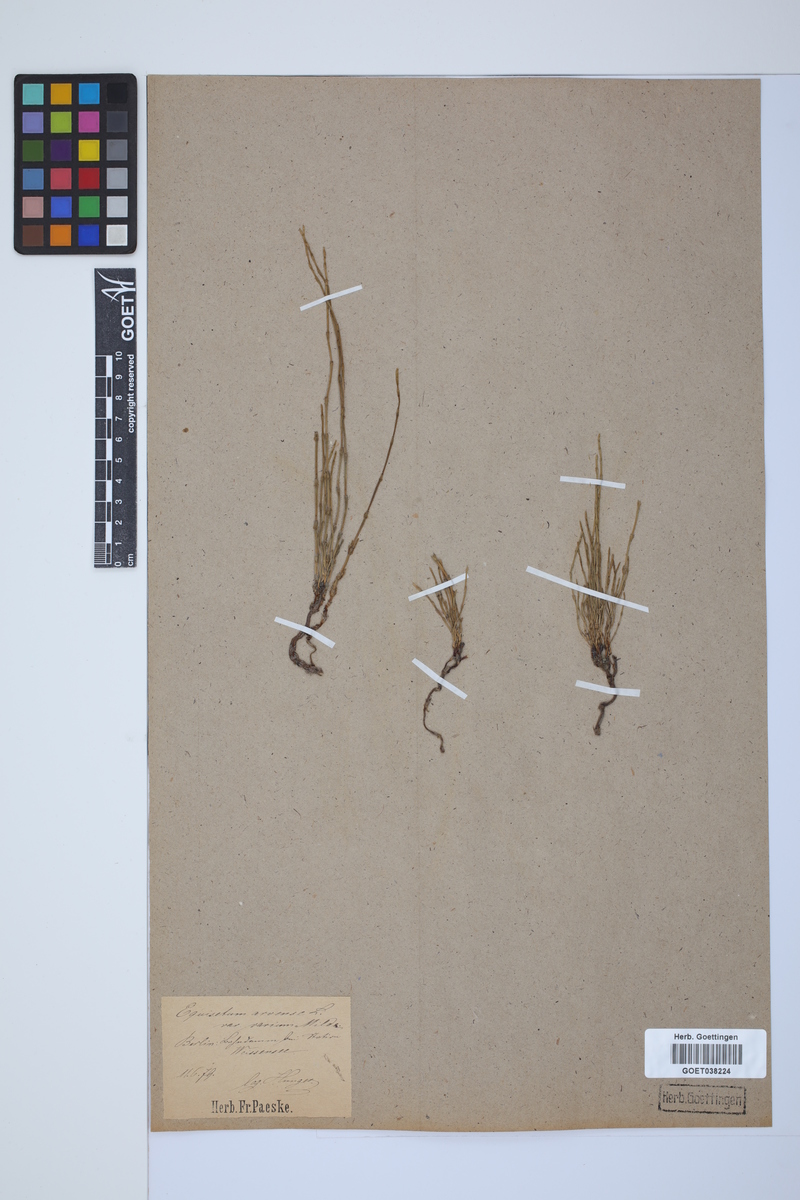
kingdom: Plantae
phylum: Tracheophyta
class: Polypodiopsida
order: Equisetales
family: Equisetaceae
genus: Equisetum
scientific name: Equisetum arvense
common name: Field horsetail
